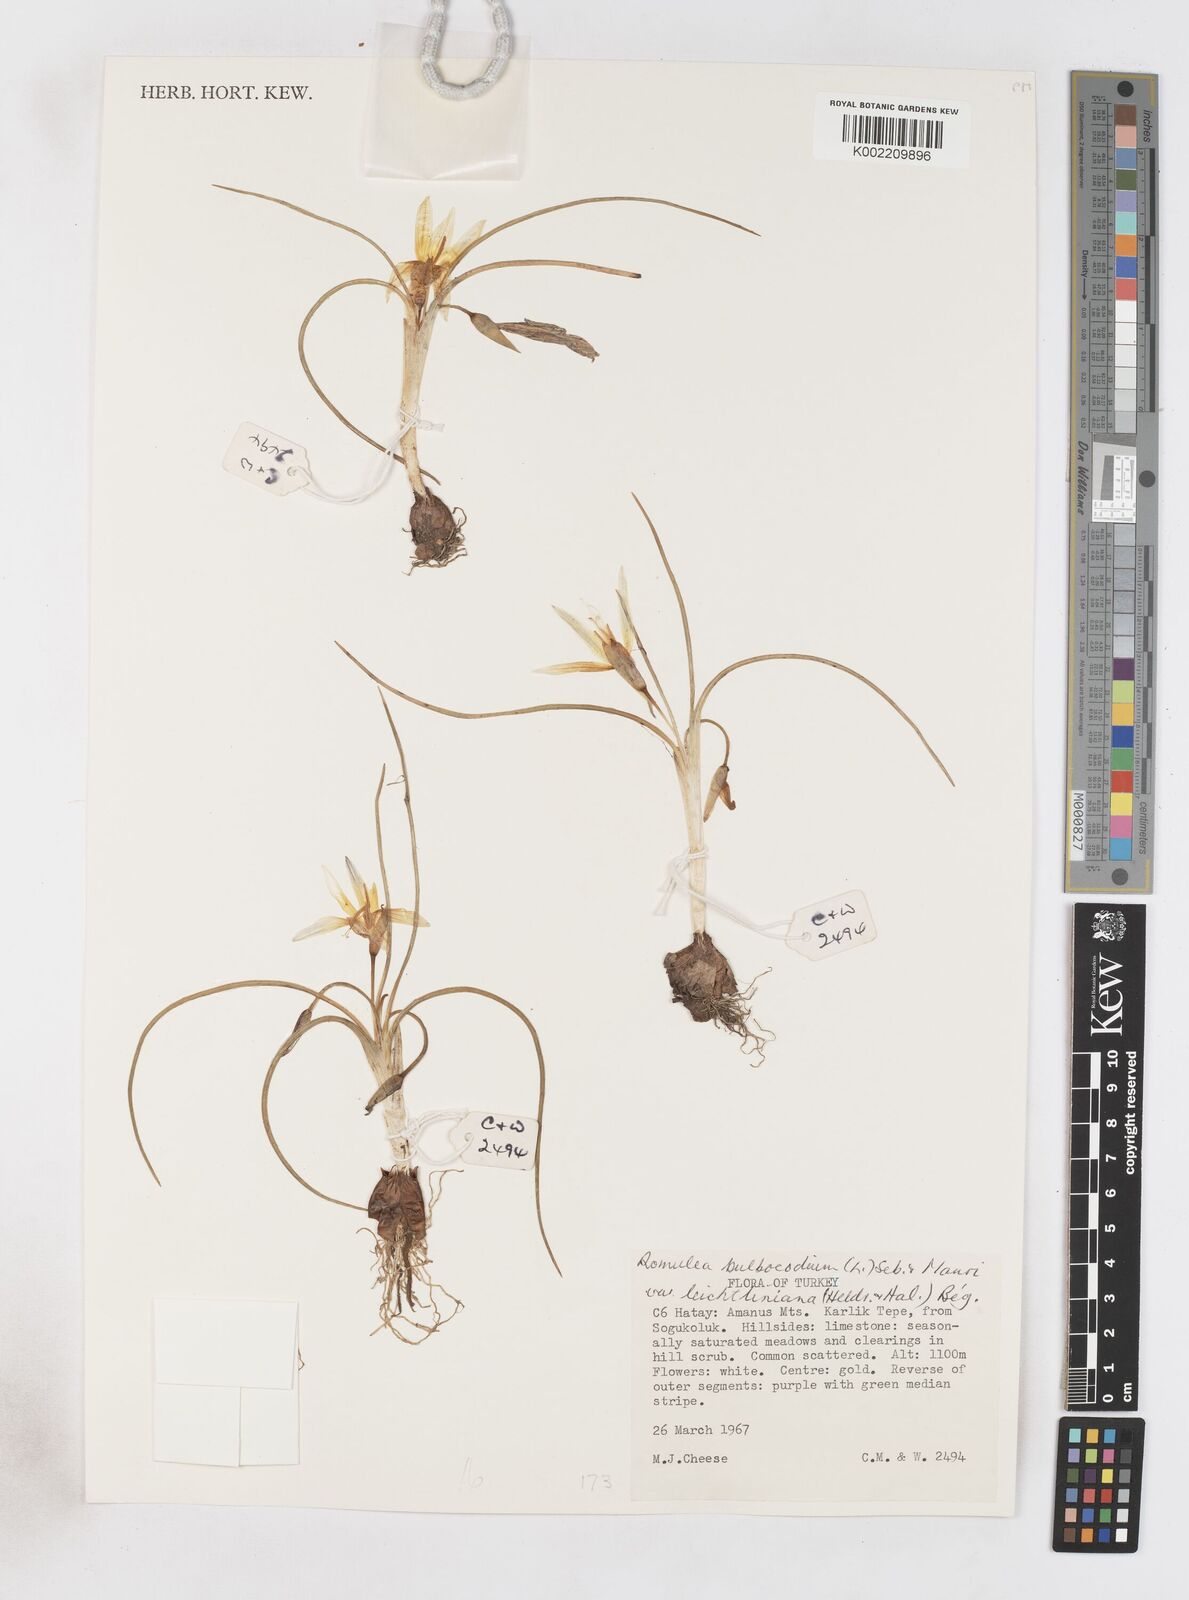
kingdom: Plantae
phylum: Tracheophyta
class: Liliopsida
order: Asparagales
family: Iridaceae
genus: Romulea
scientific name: Romulea bulbocodium
